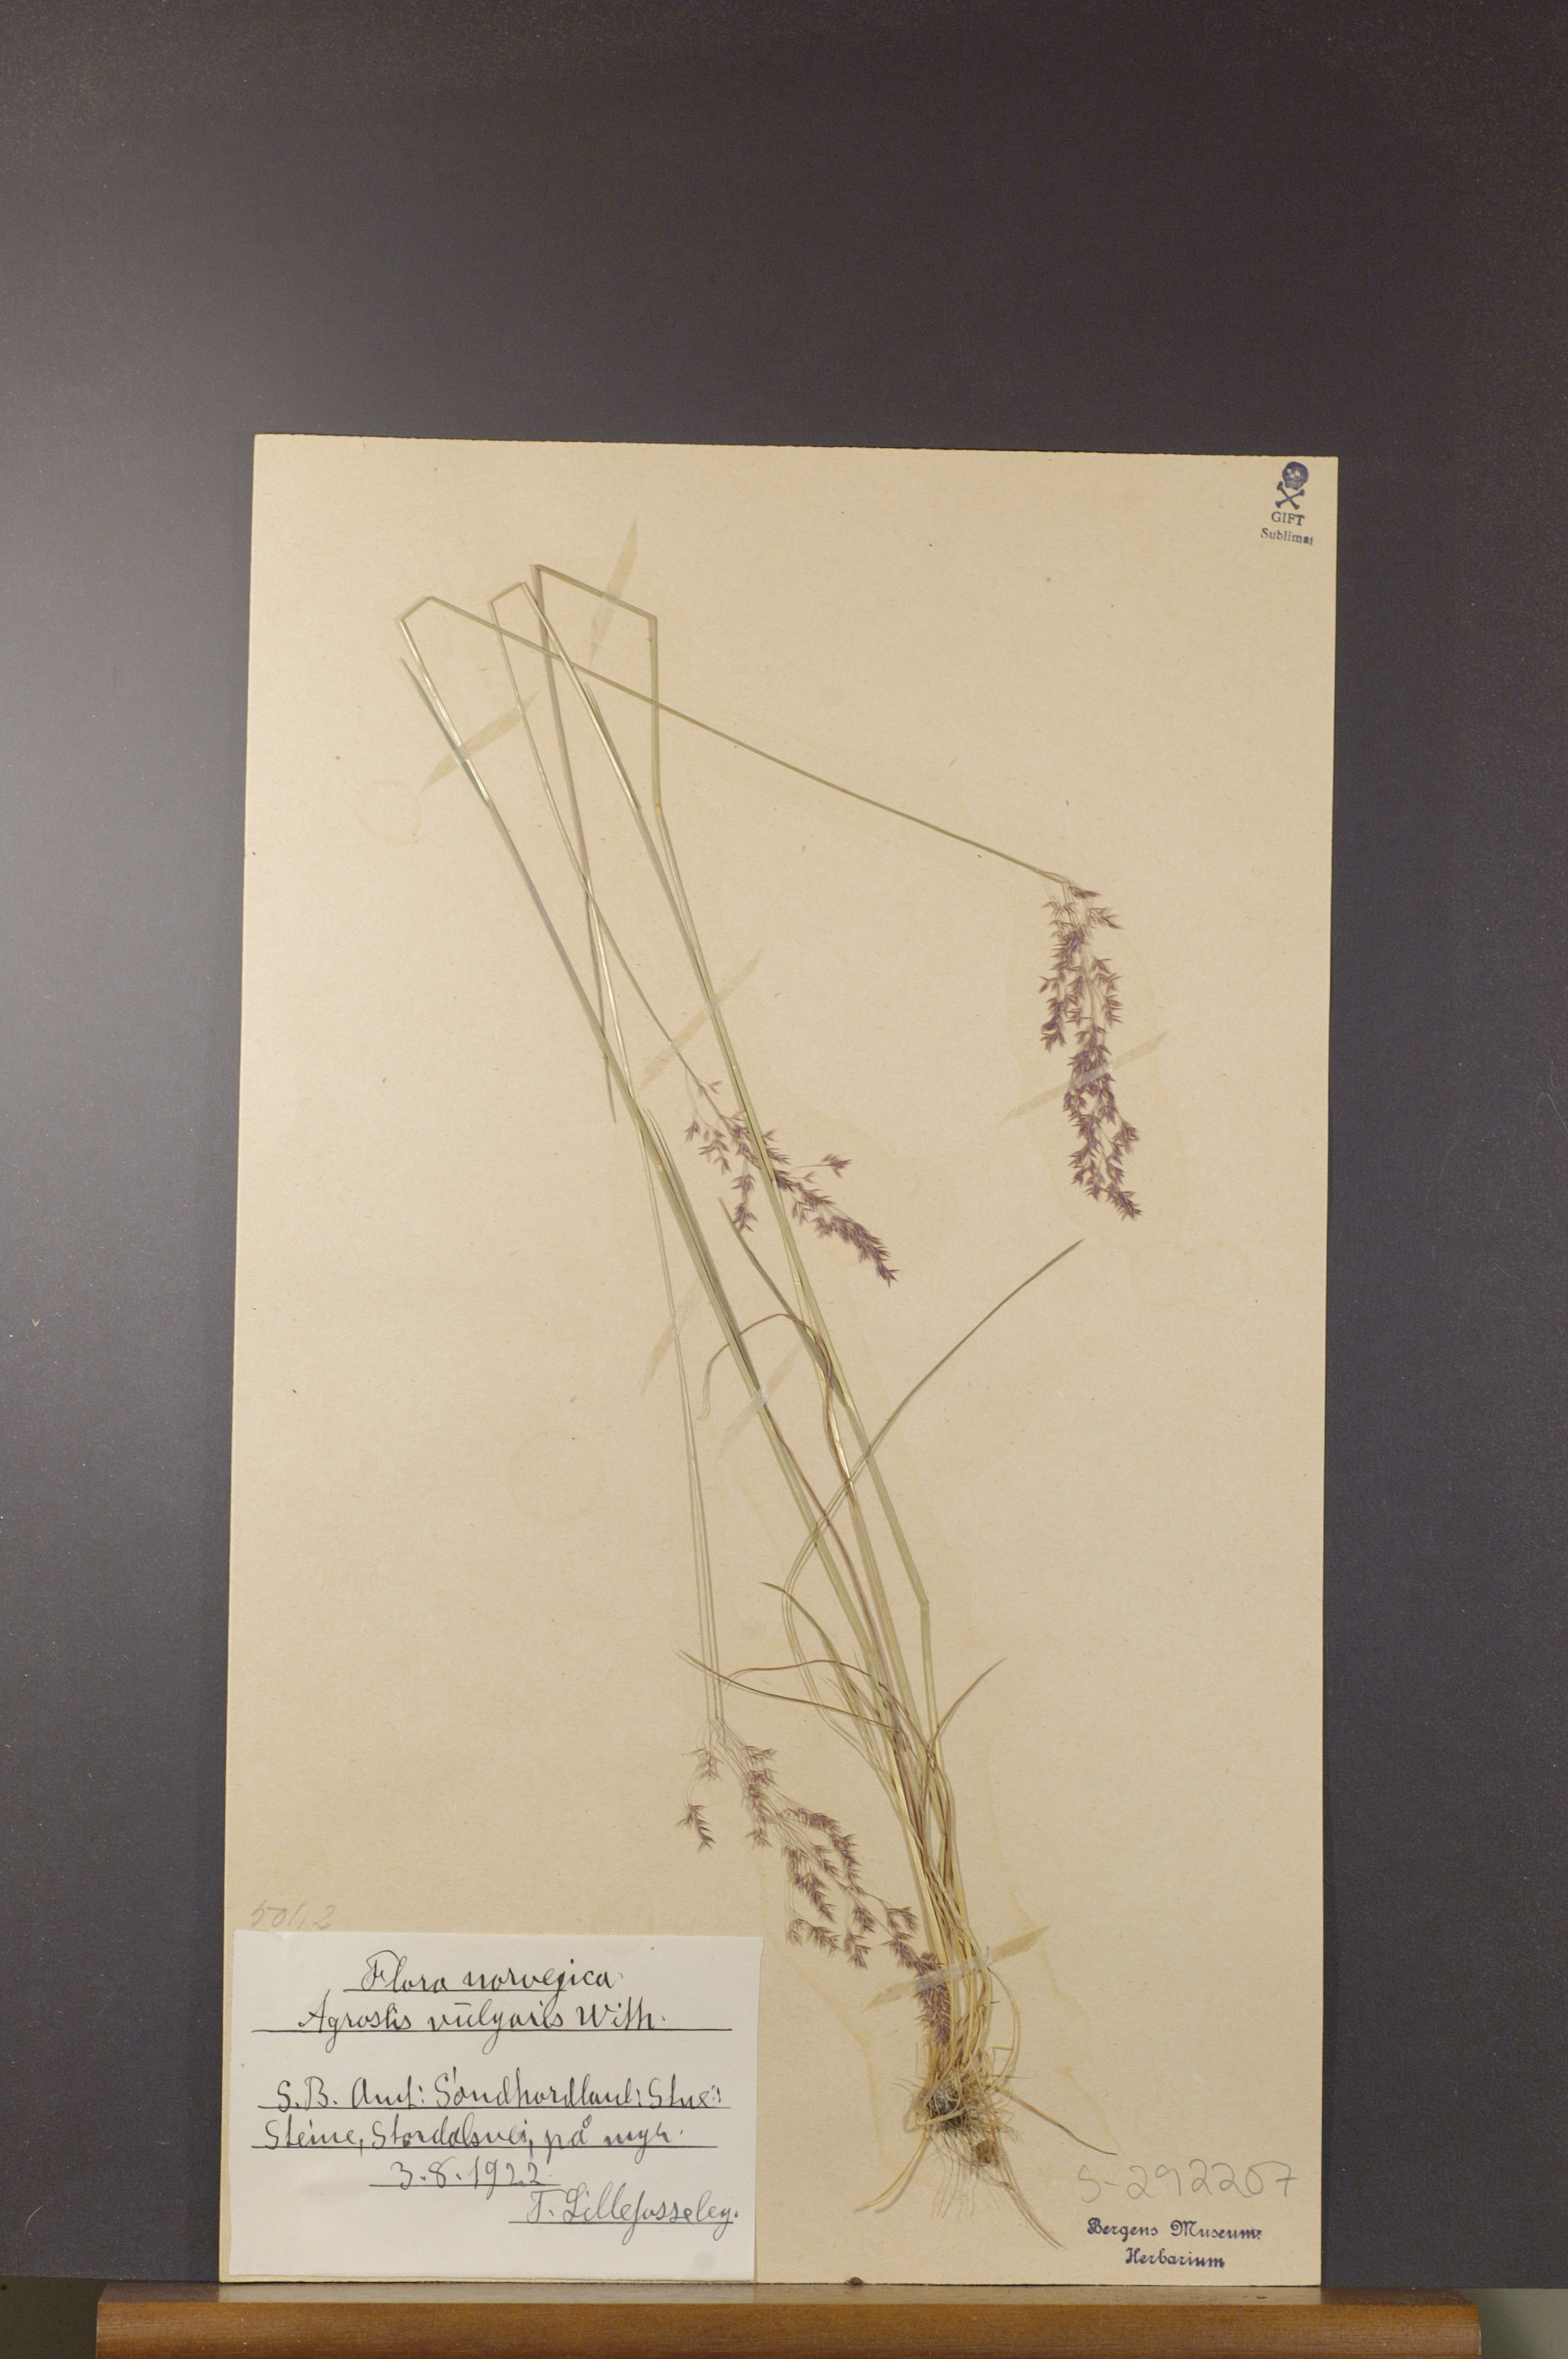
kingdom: Plantae
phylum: Tracheophyta
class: Liliopsida
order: Poales
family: Poaceae
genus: Agrostis
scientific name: Agrostis capillaris
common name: Colonial bentgrass
